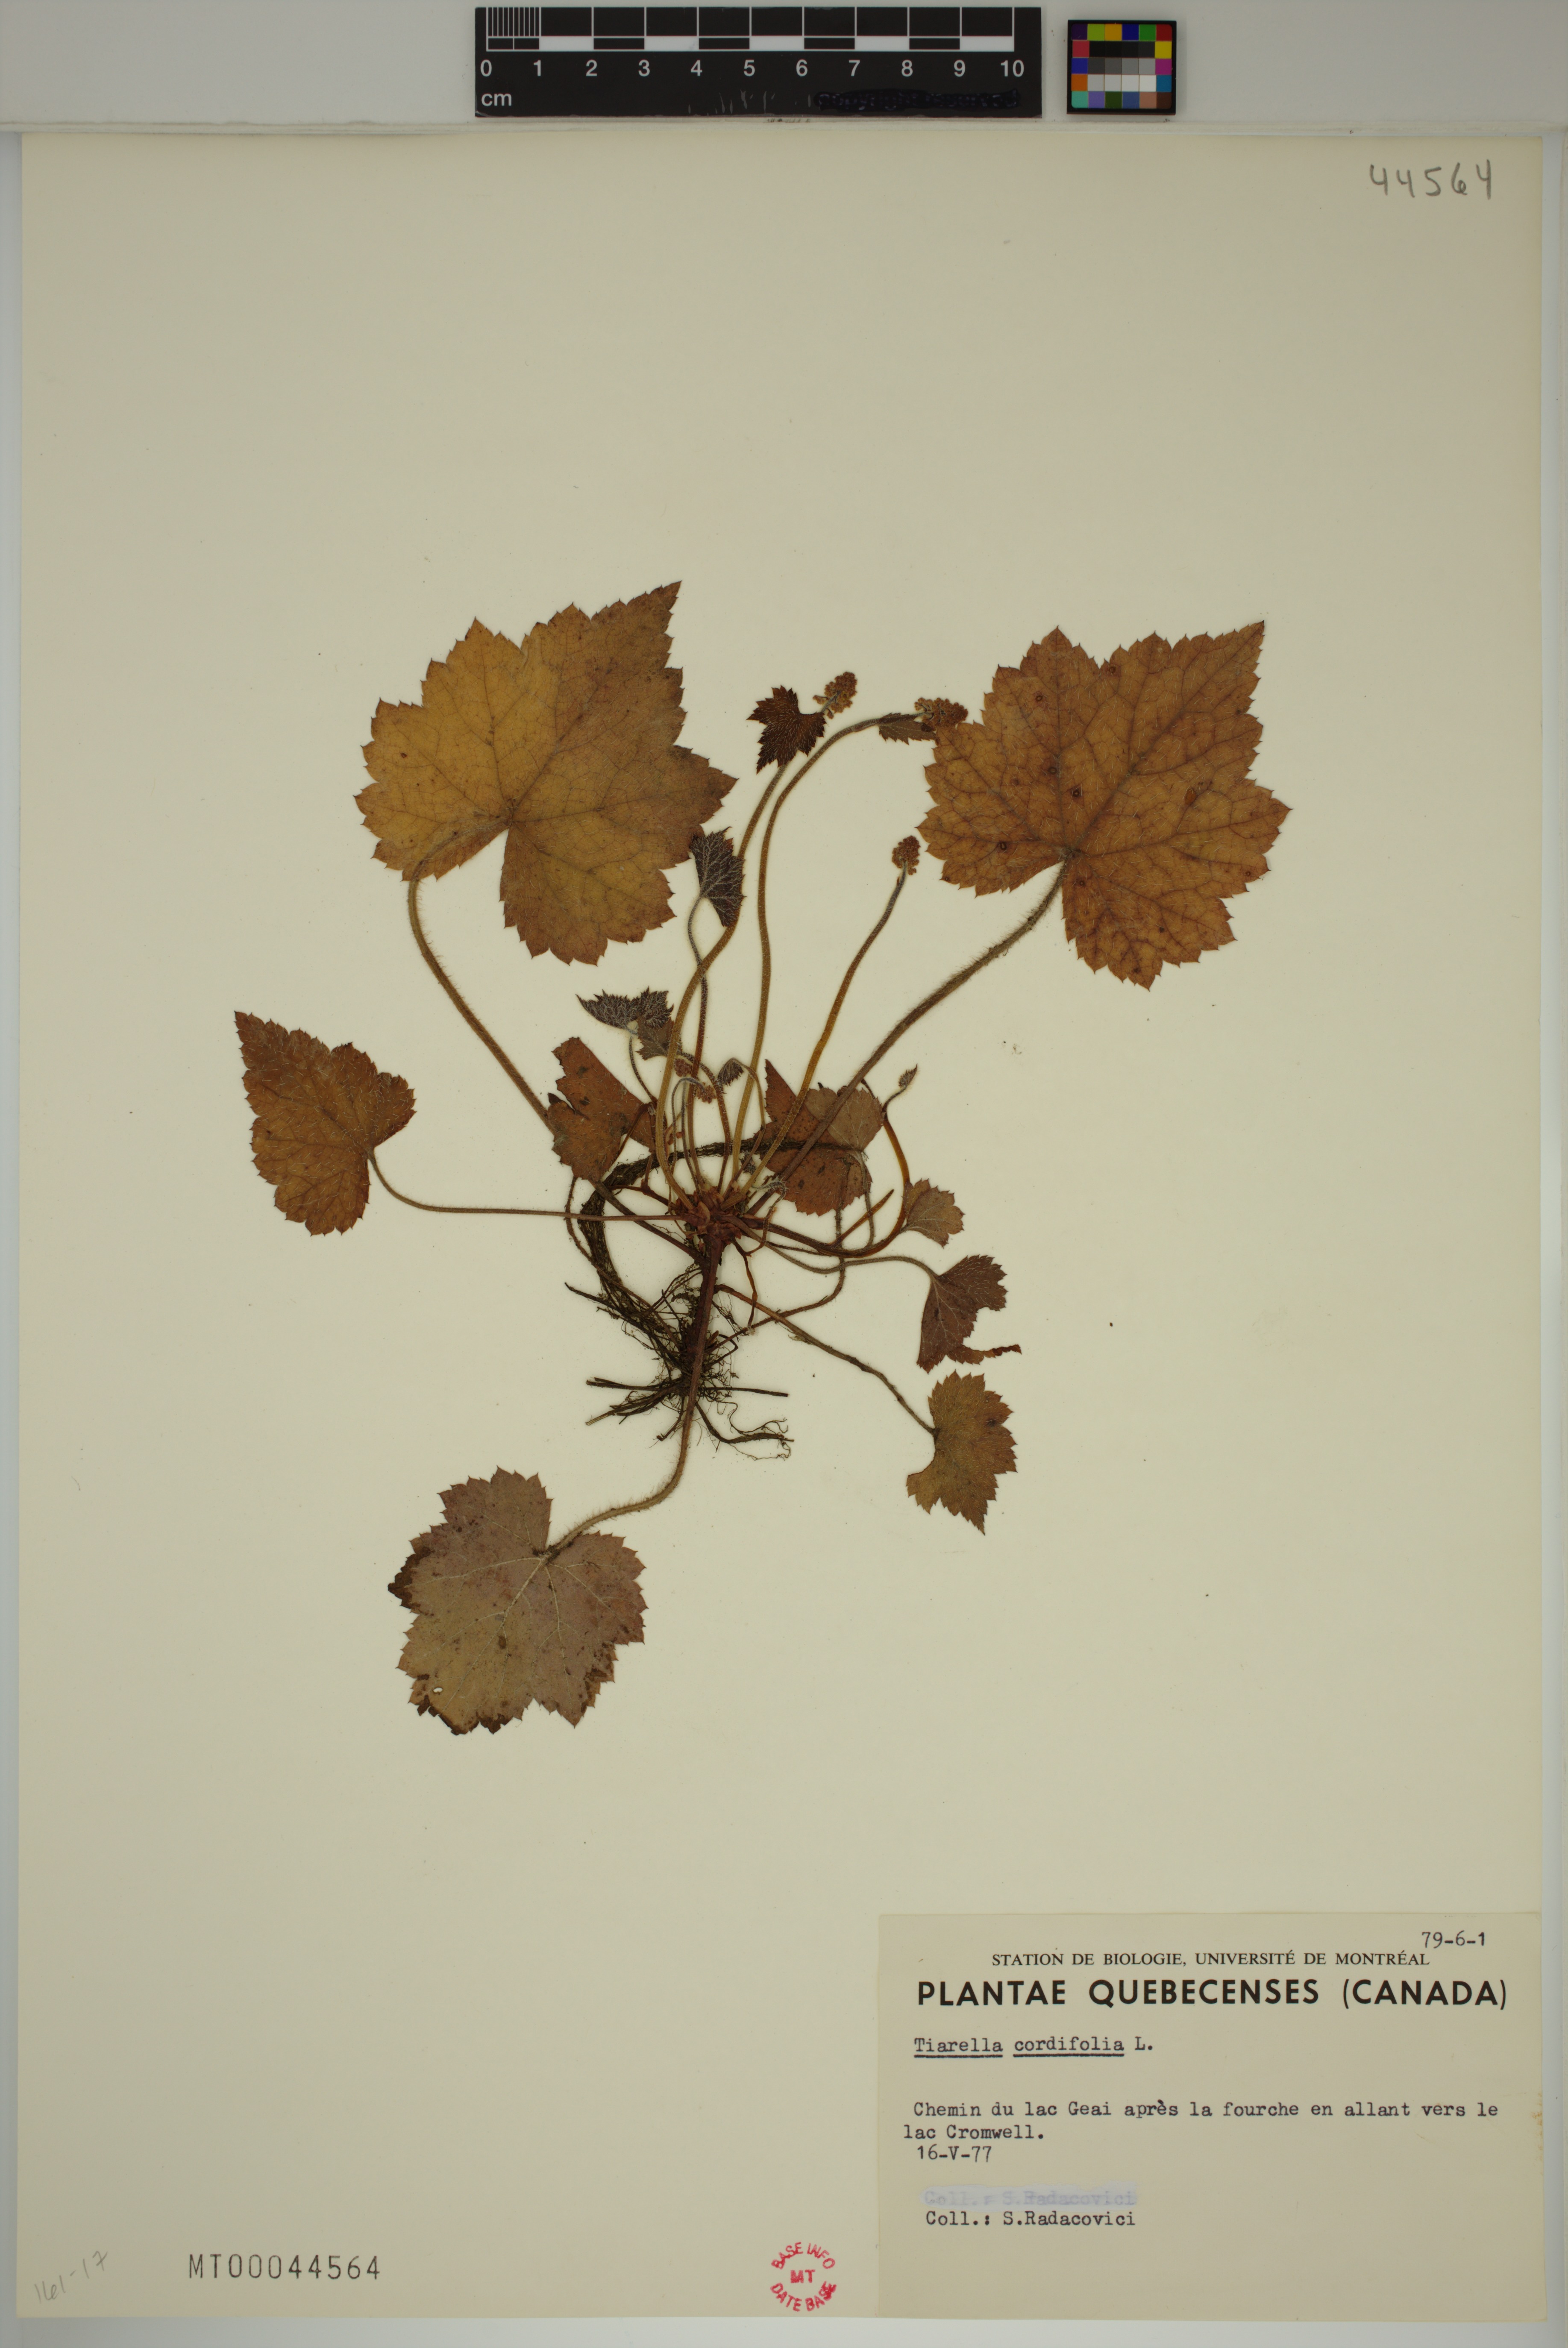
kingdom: Plantae
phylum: Tracheophyta
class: Magnoliopsida
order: Saxifragales
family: Saxifragaceae
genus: Tiarella
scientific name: Tiarella cordifolia
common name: Foamflower
